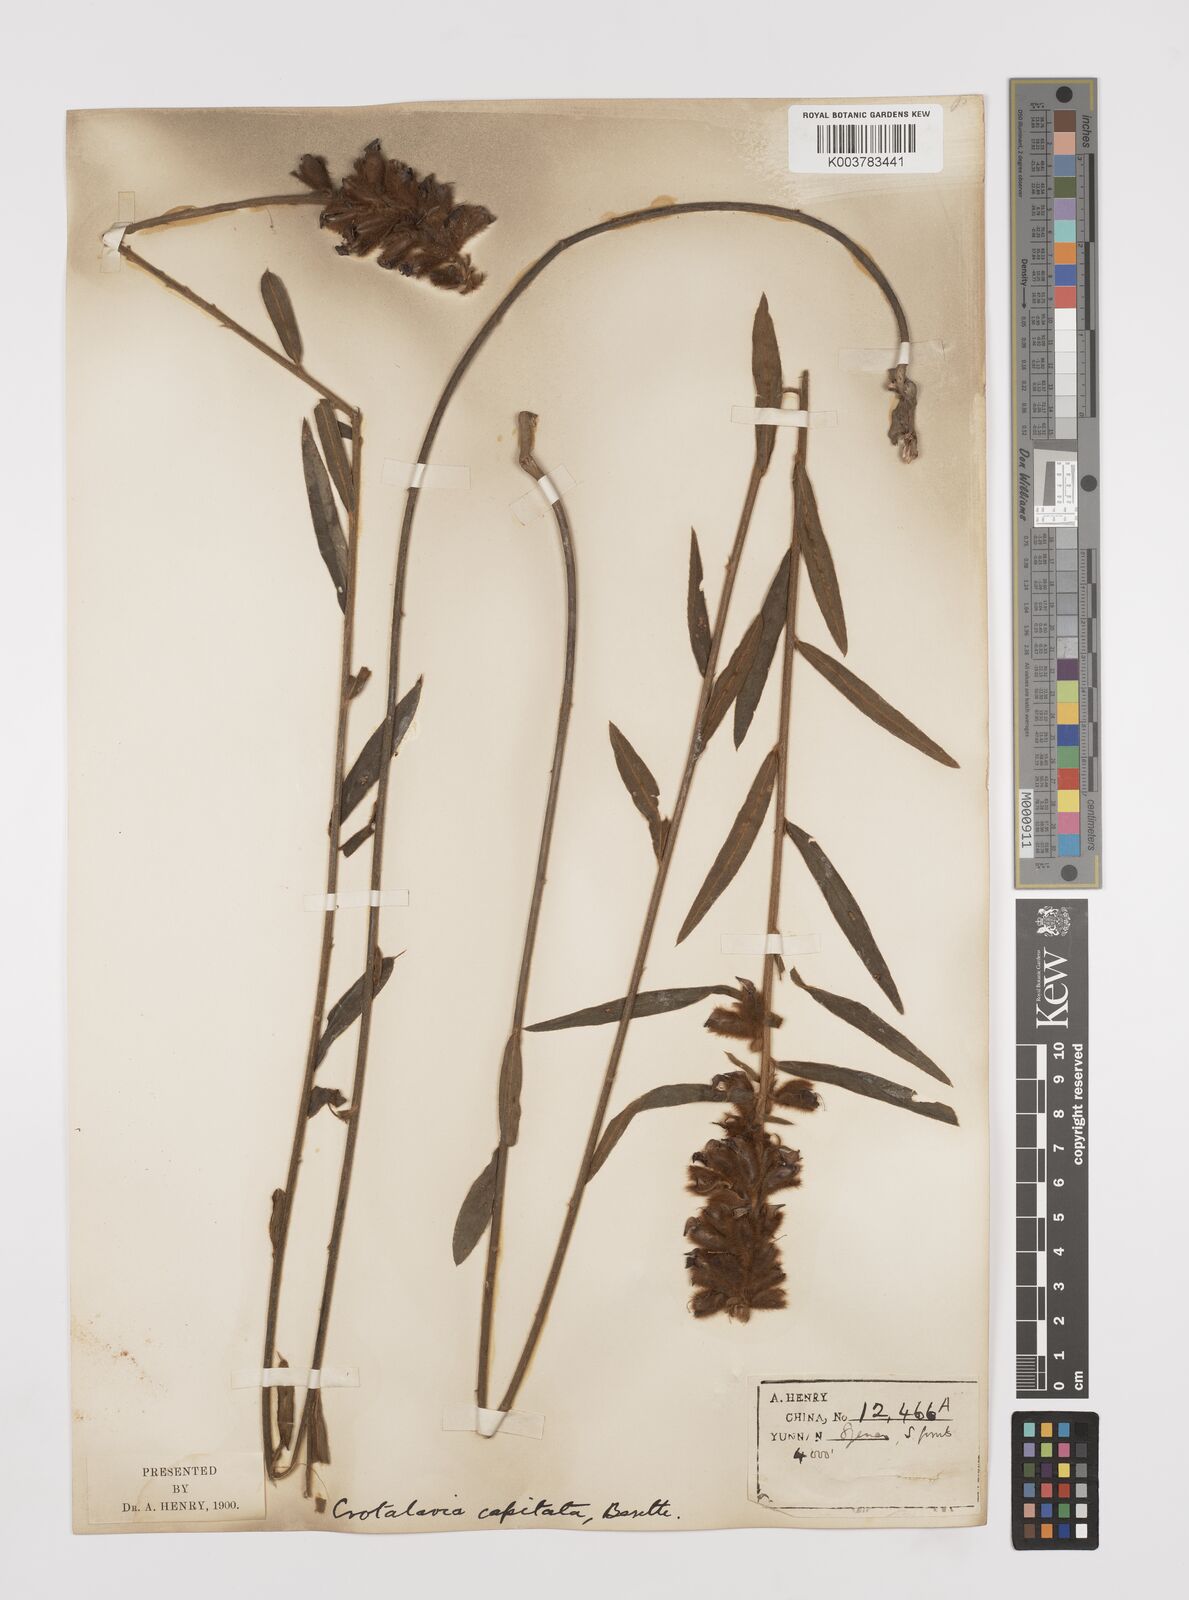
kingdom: Plantae
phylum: Tracheophyta
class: Magnoliopsida
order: Fabales
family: Fabaceae
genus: Liparia
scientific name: Liparia capitata
